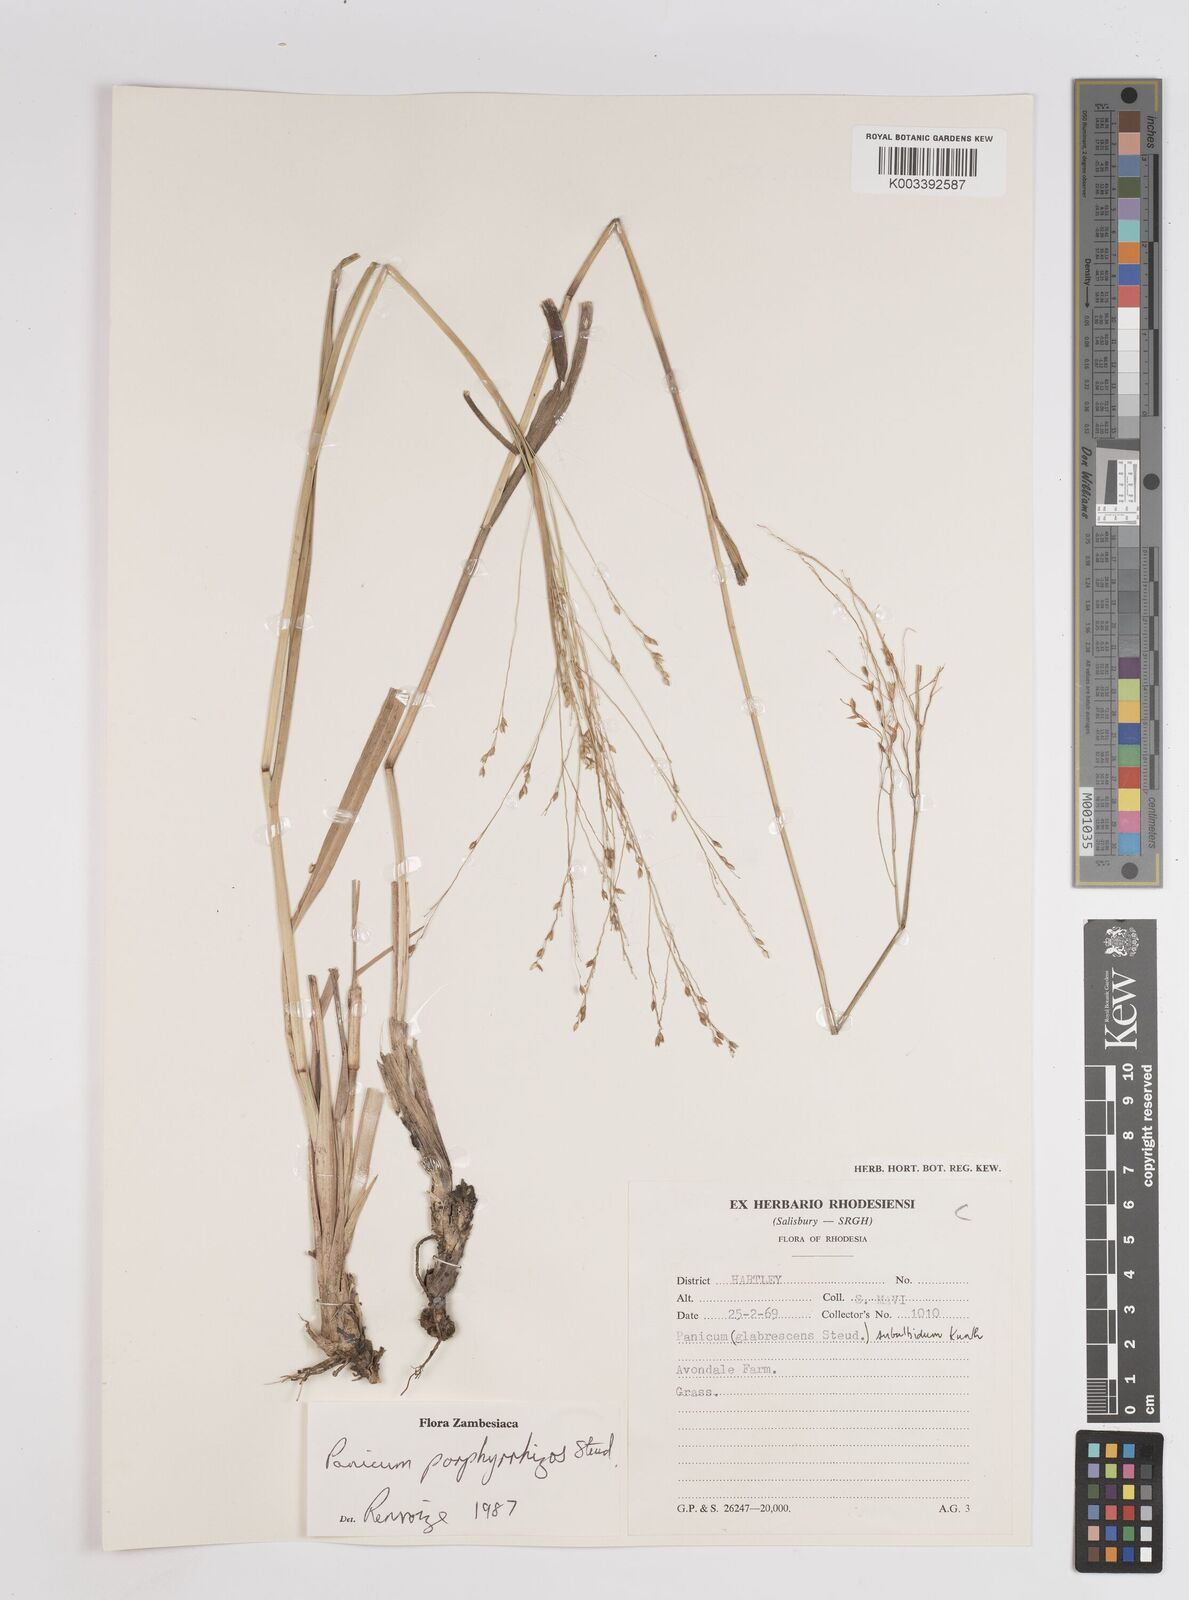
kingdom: Plantae
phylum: Tracheophyta
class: Liliopsida
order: Poales
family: Poaceae
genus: Panicum
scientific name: Panicum porphyrrhizos
